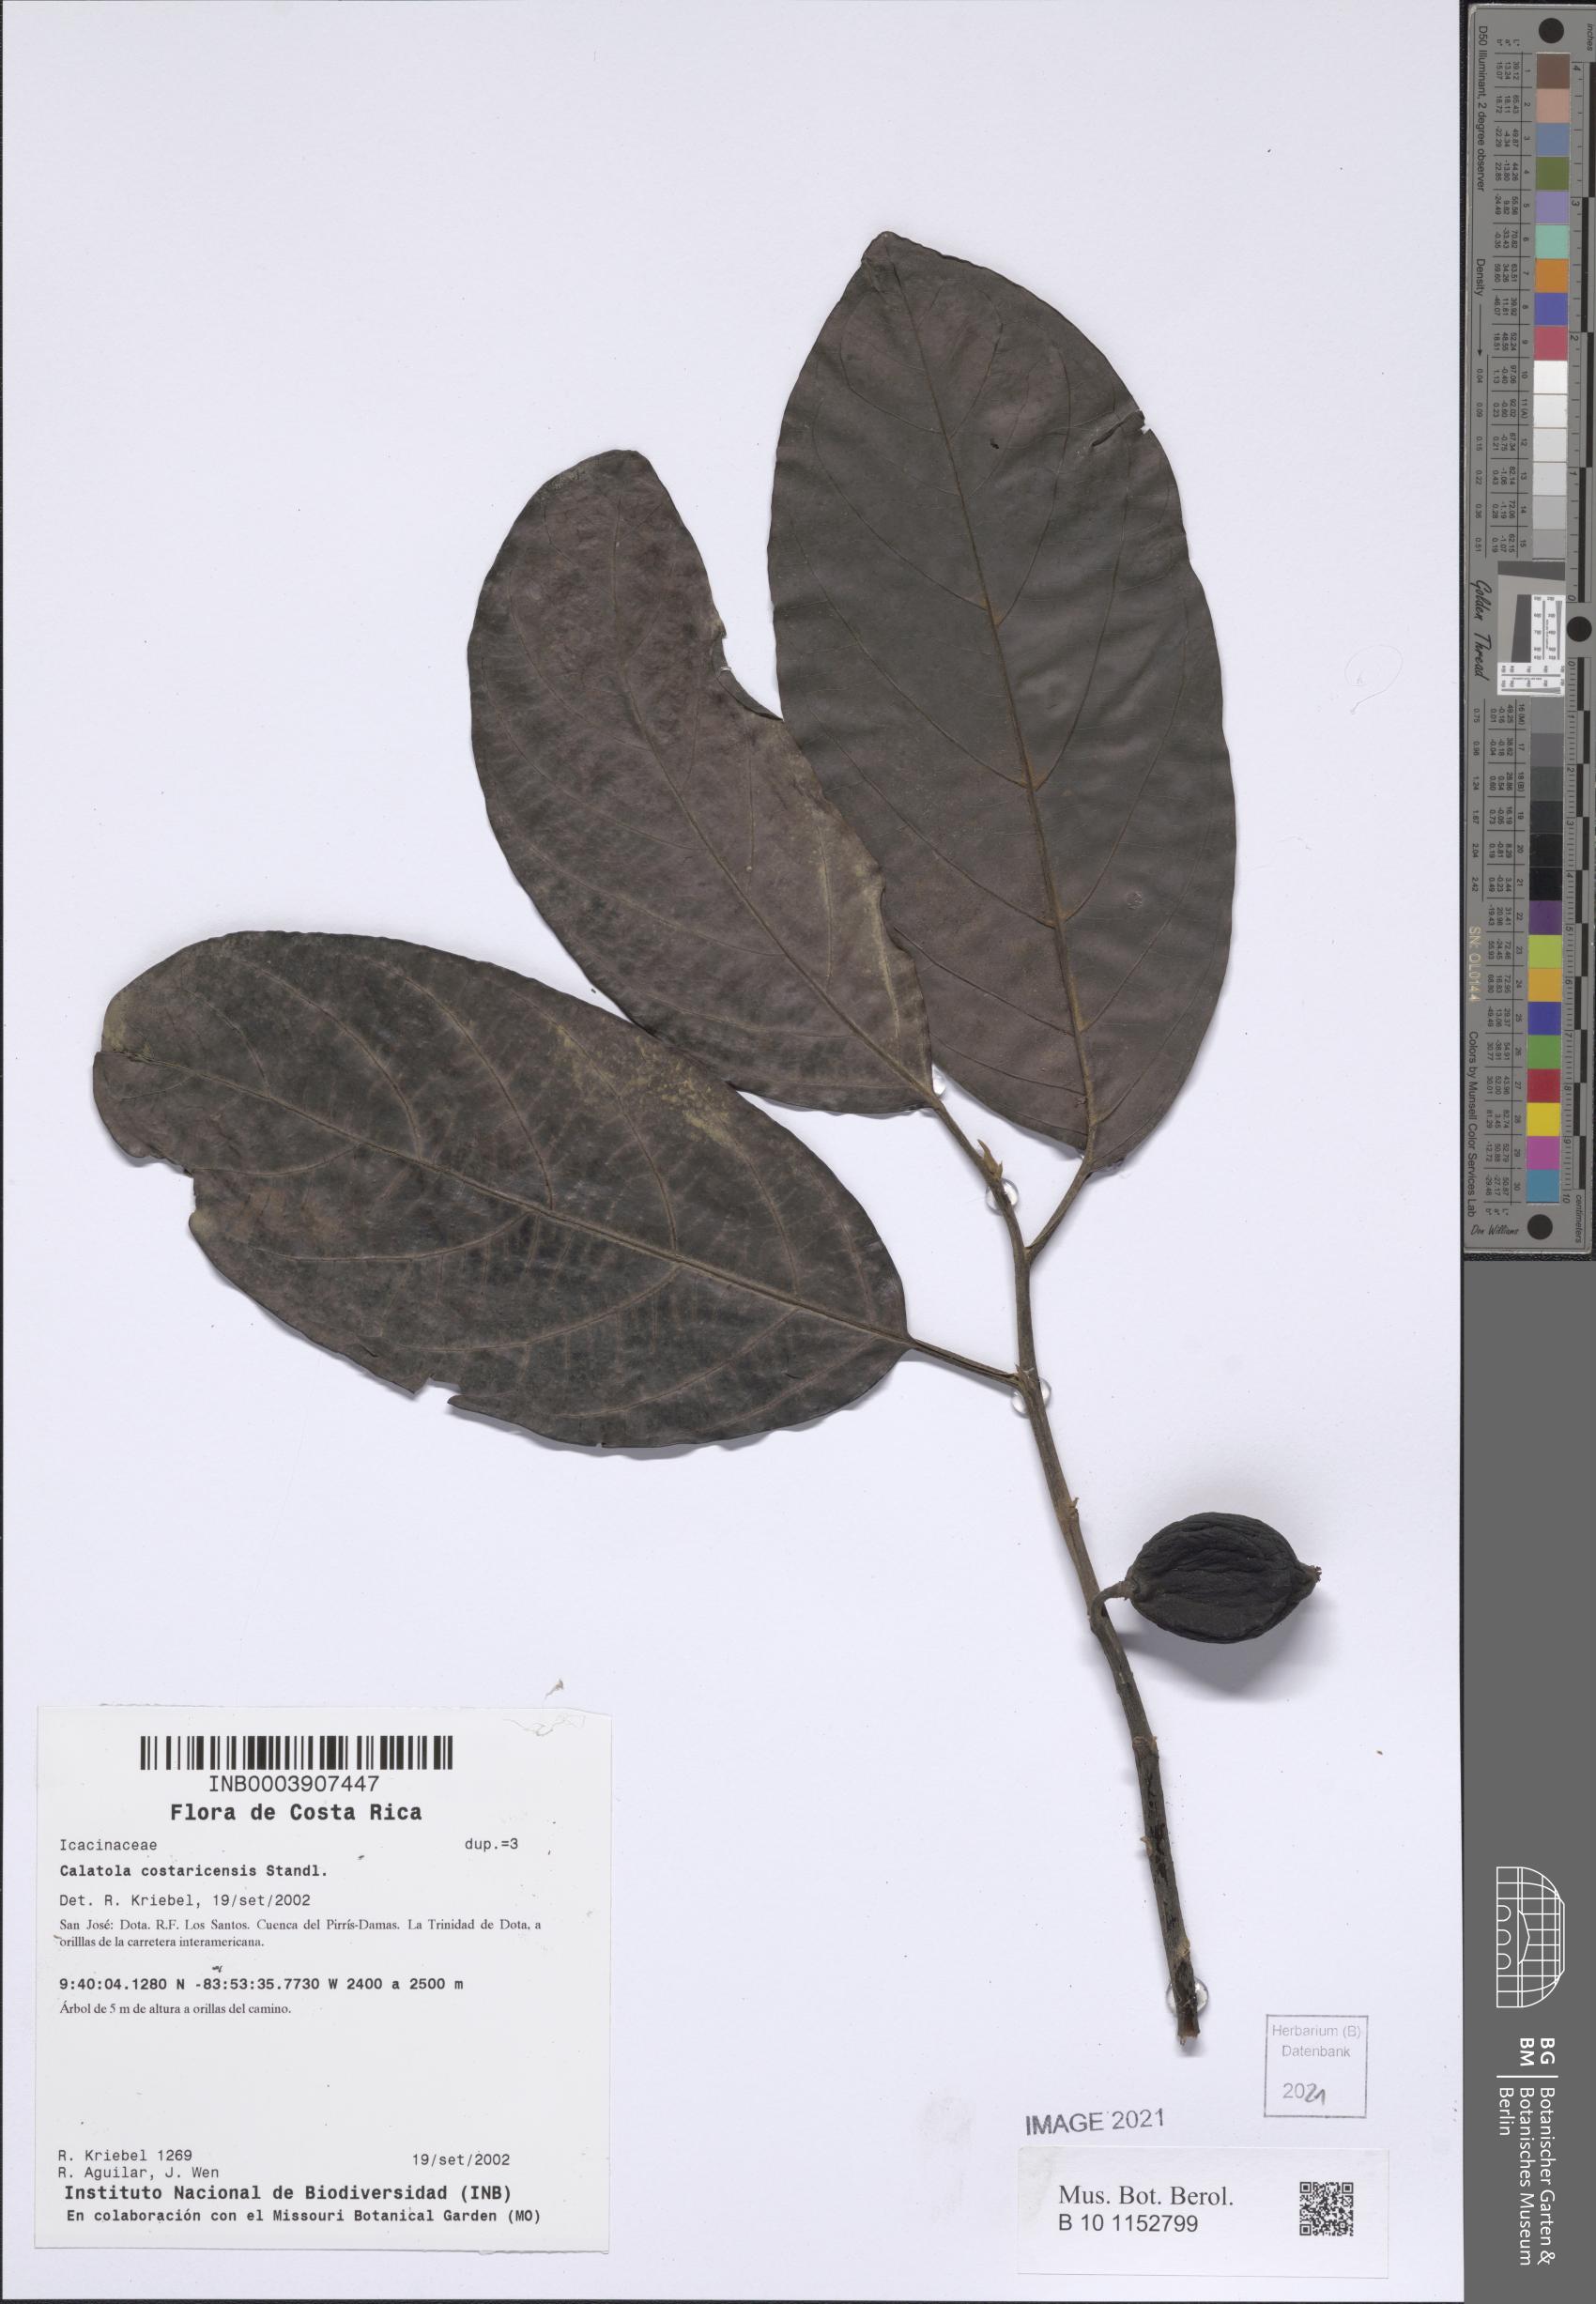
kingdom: Plantae
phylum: Tracheophyta
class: Magnoliopsida
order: Metteniusales
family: Metteniusaceae
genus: Calatola
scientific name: Calatola costaricensis
